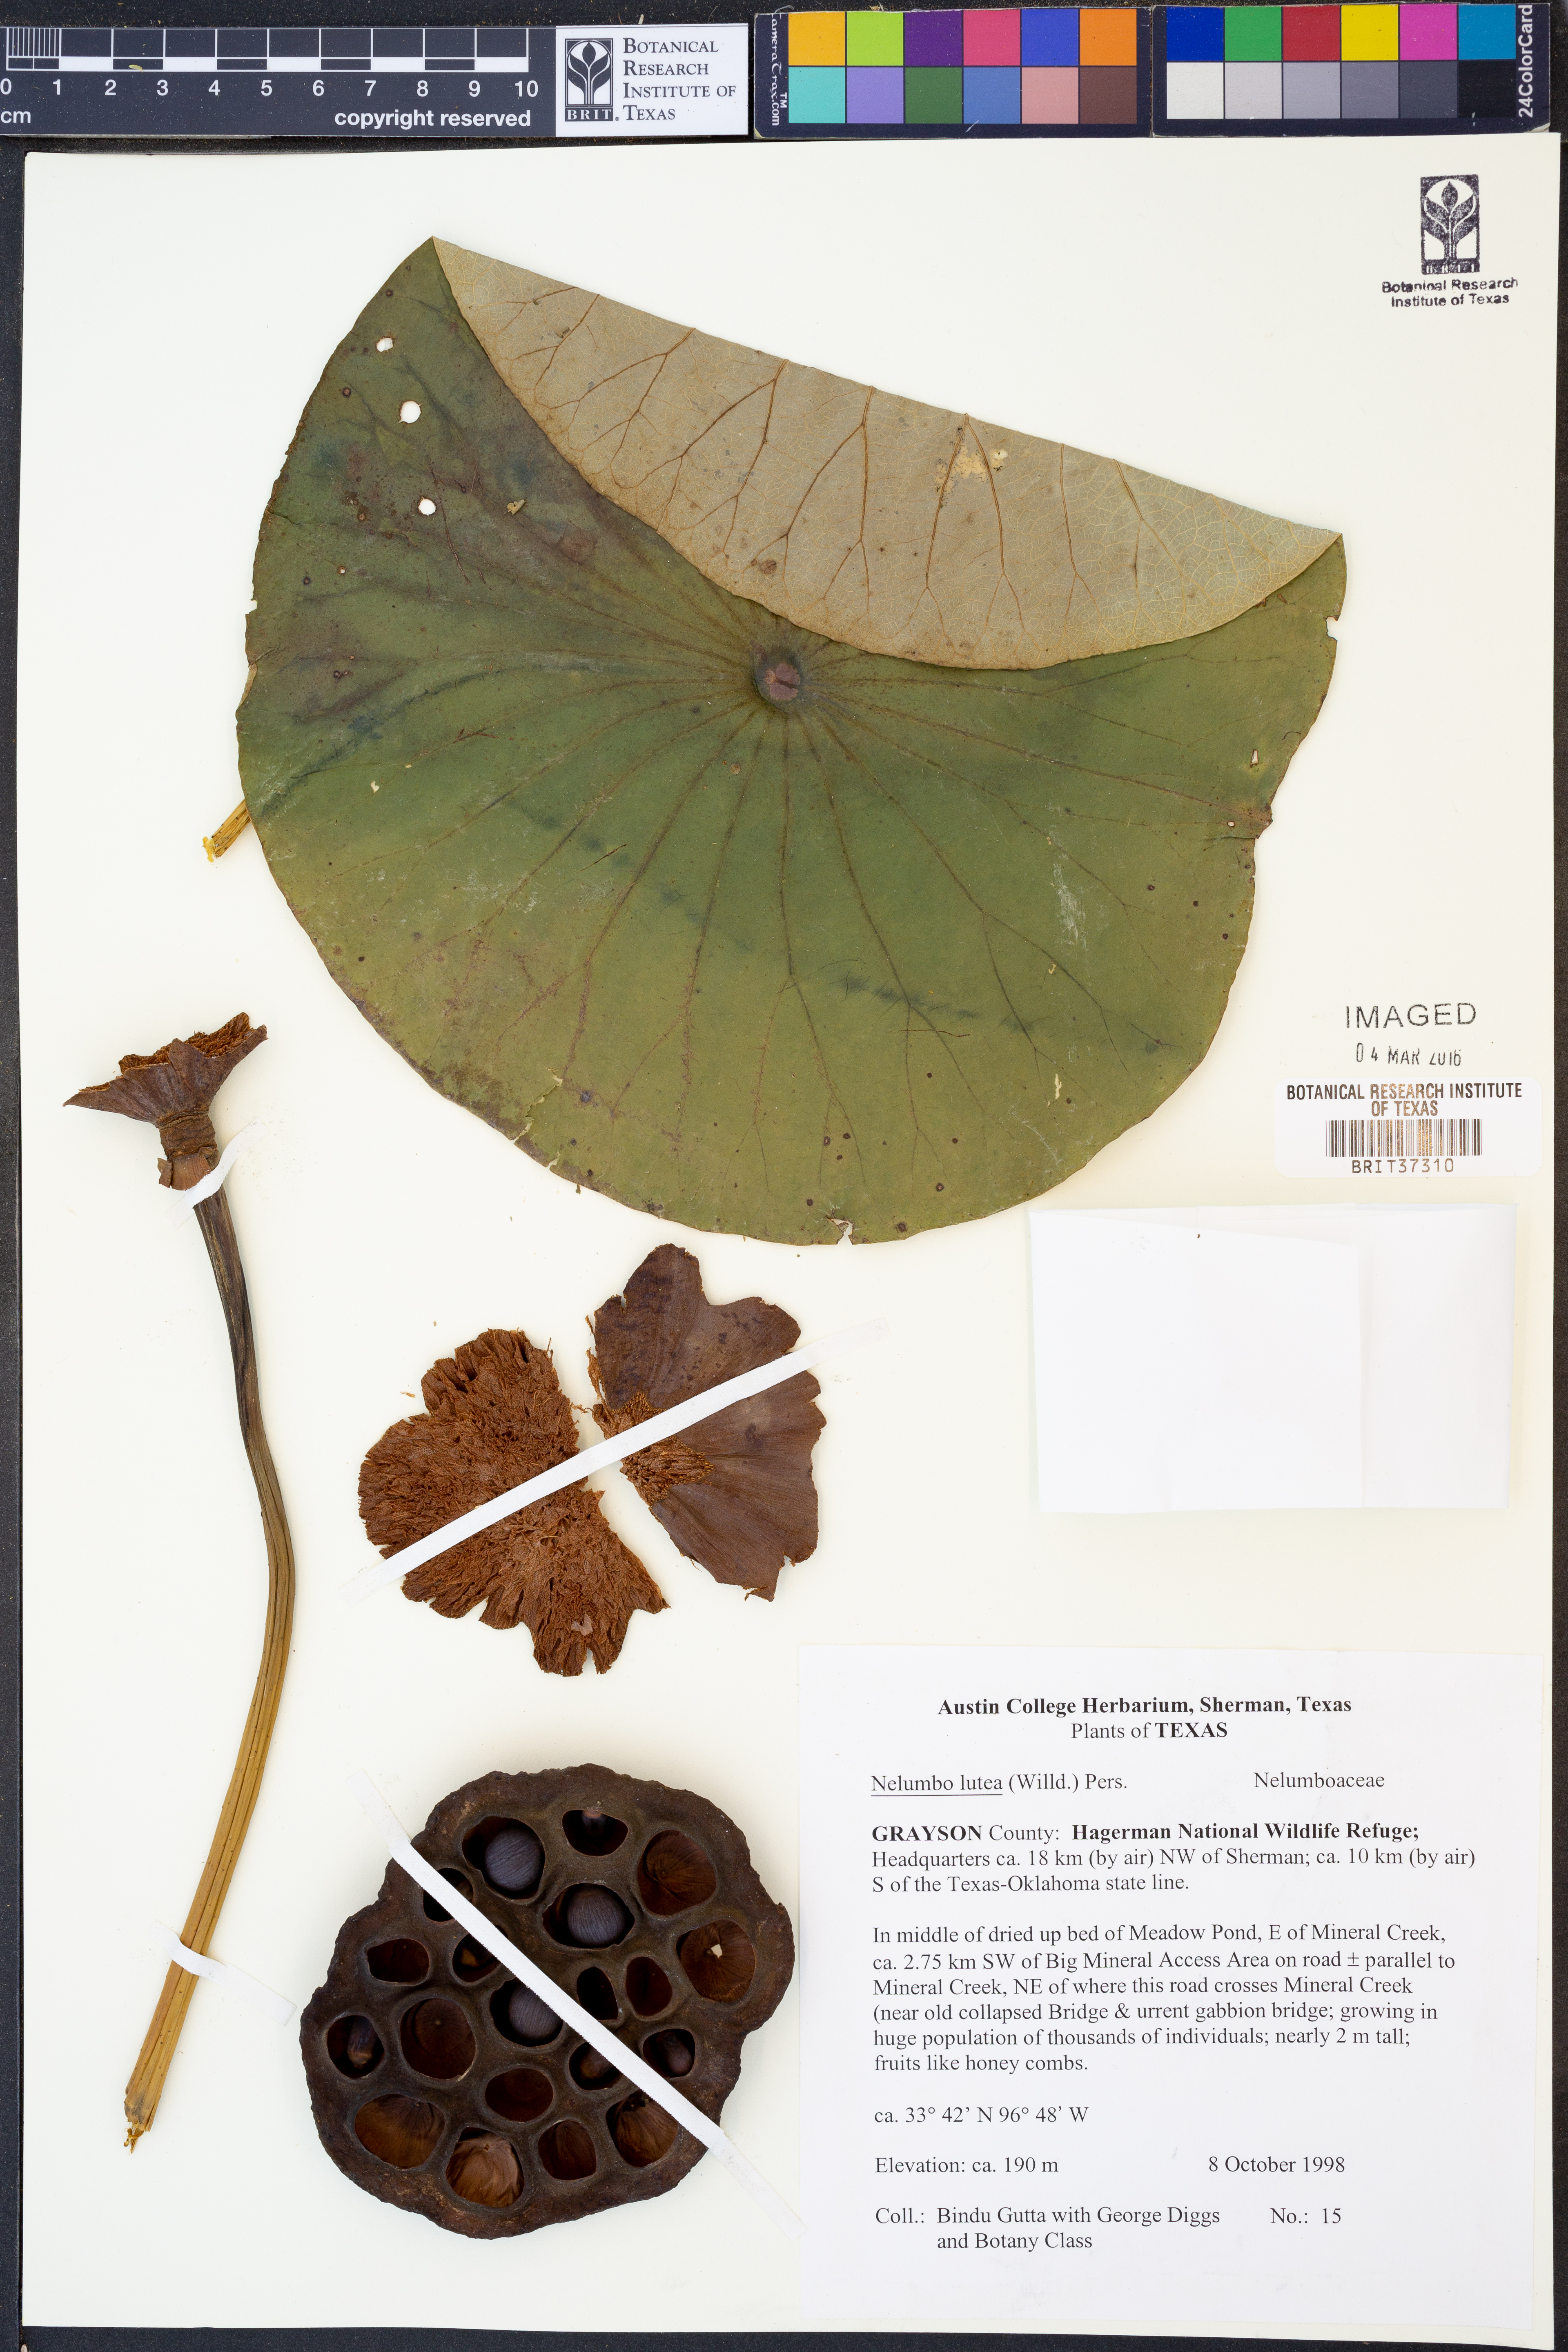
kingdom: Plantae
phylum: Tracheophyta
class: Magnoliopsida
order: Proteales
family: Nelumbonaceae
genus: Nelumbo
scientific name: Nelumbo lutea
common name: American lotus
